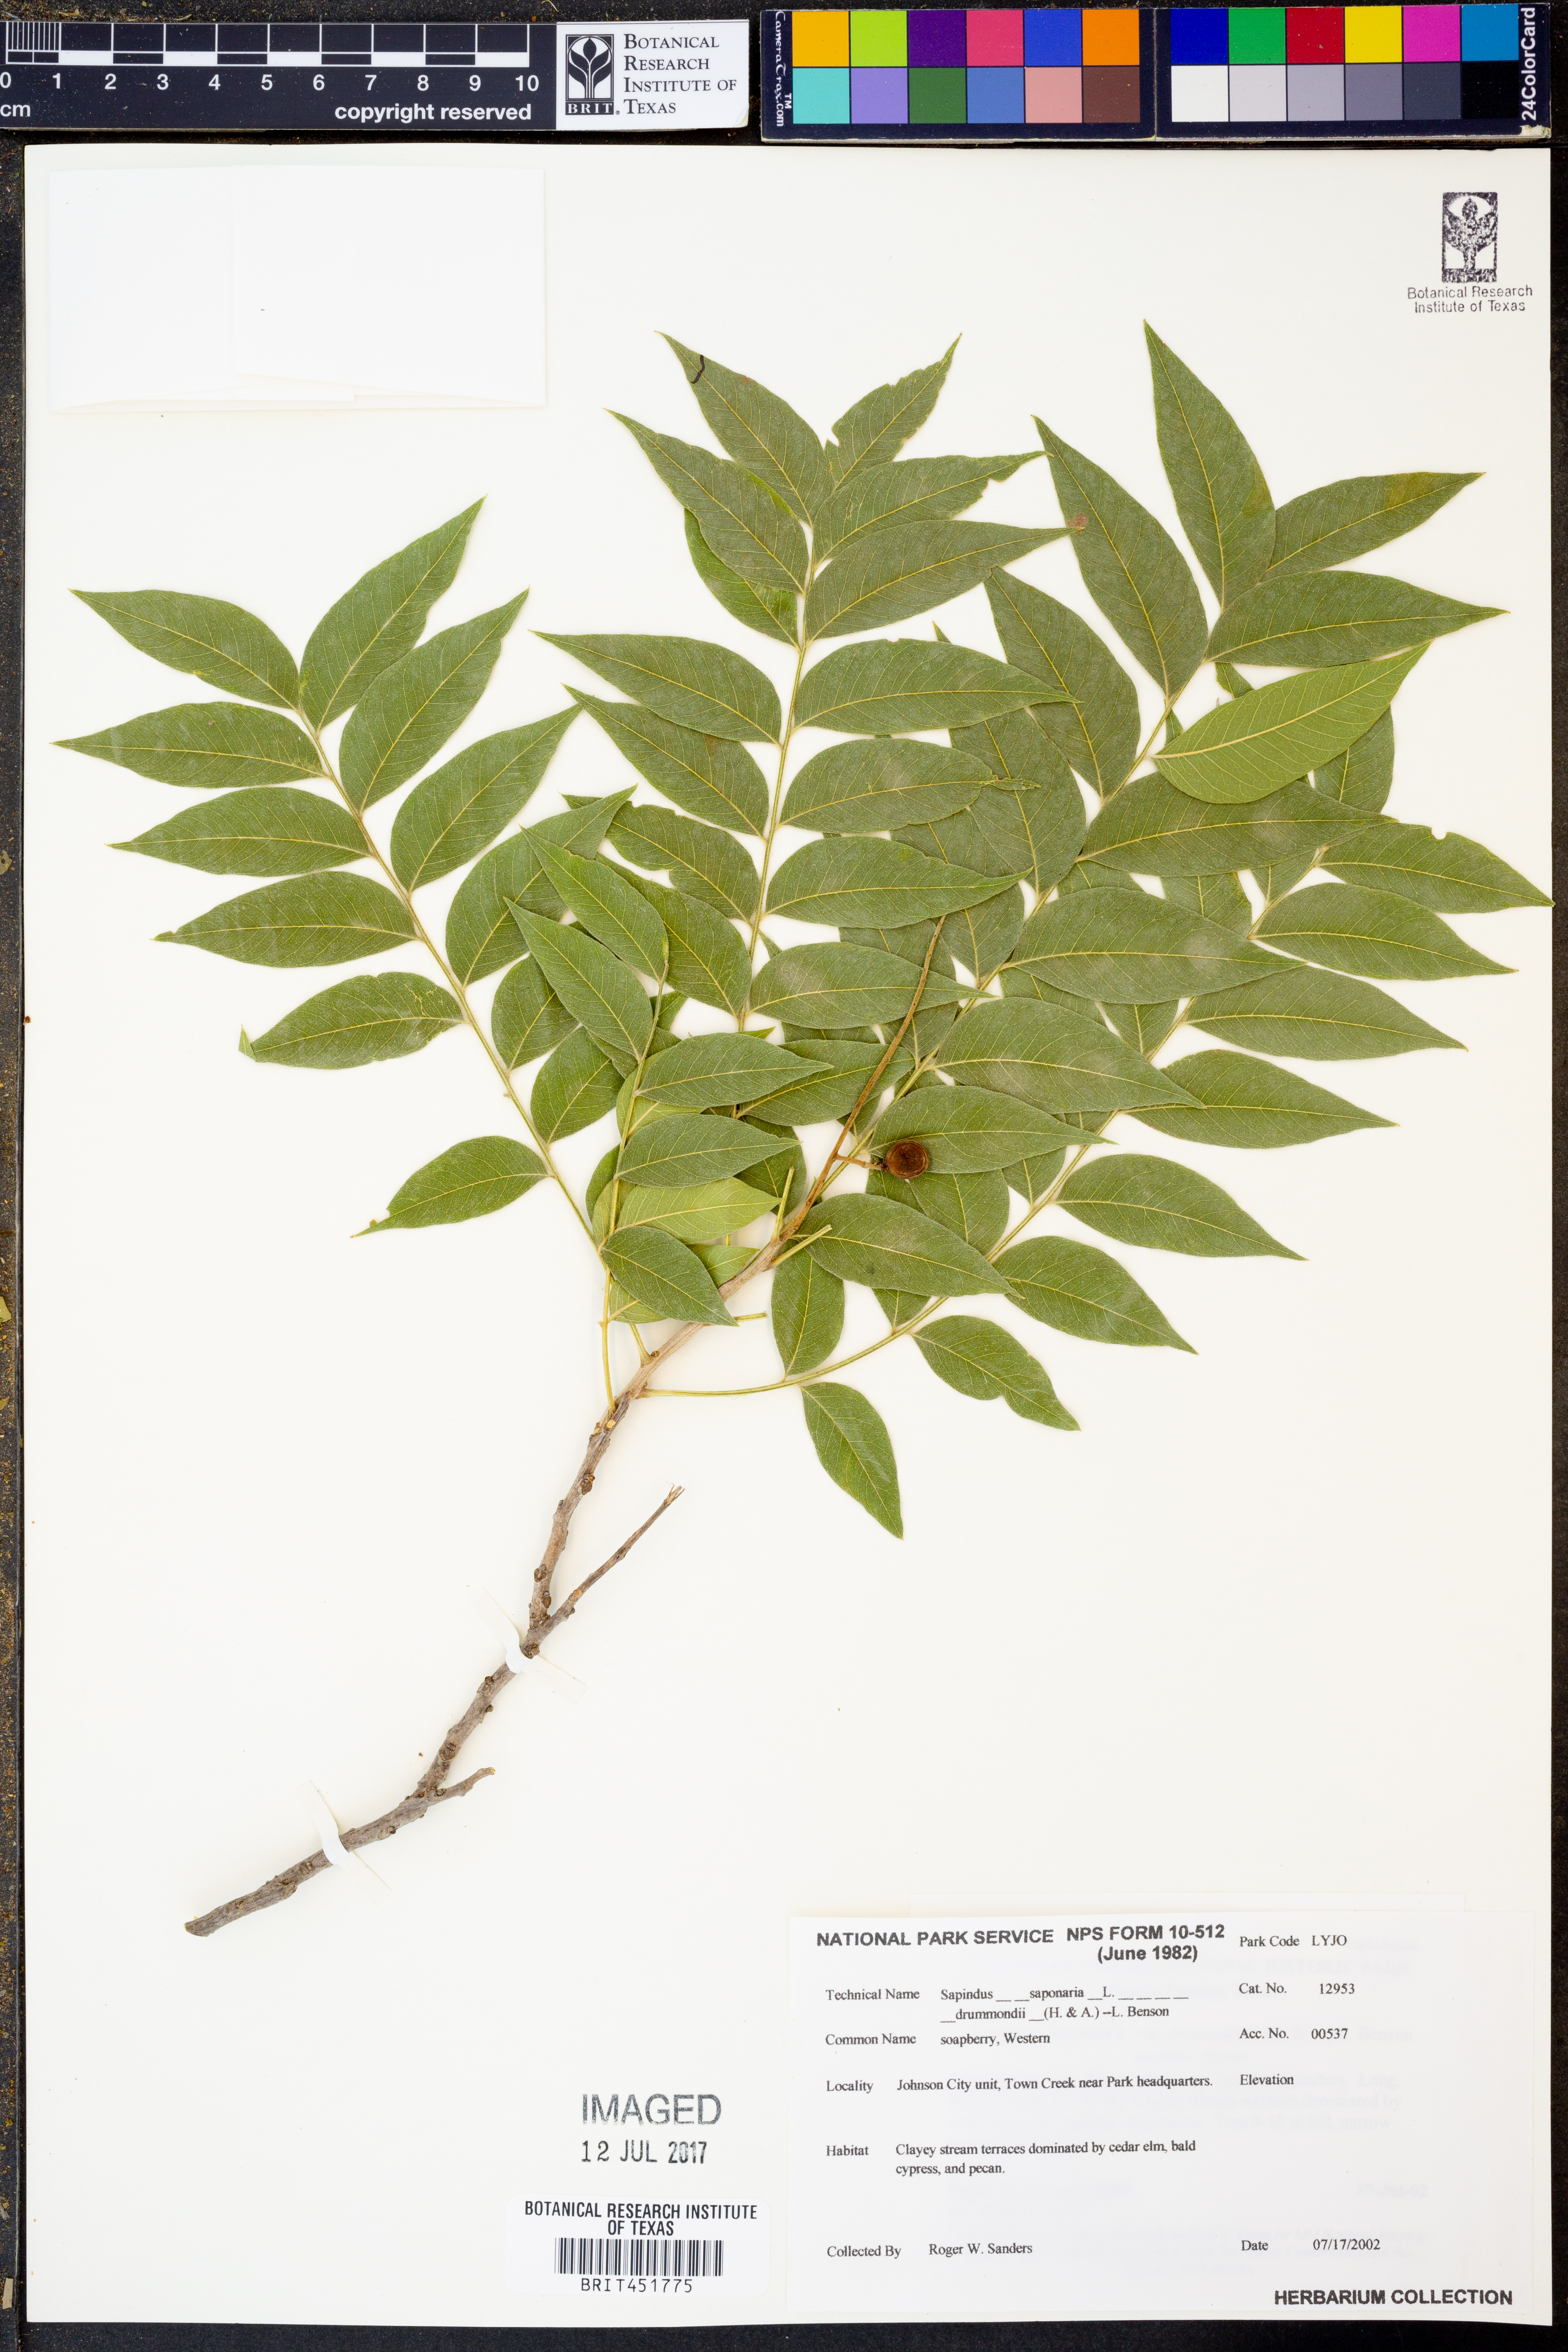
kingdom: Plantae
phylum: Tracheophyta
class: Magnoliopsida
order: Sapindales
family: Sapindaceae
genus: Sapindus
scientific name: Sapindus drummondii
